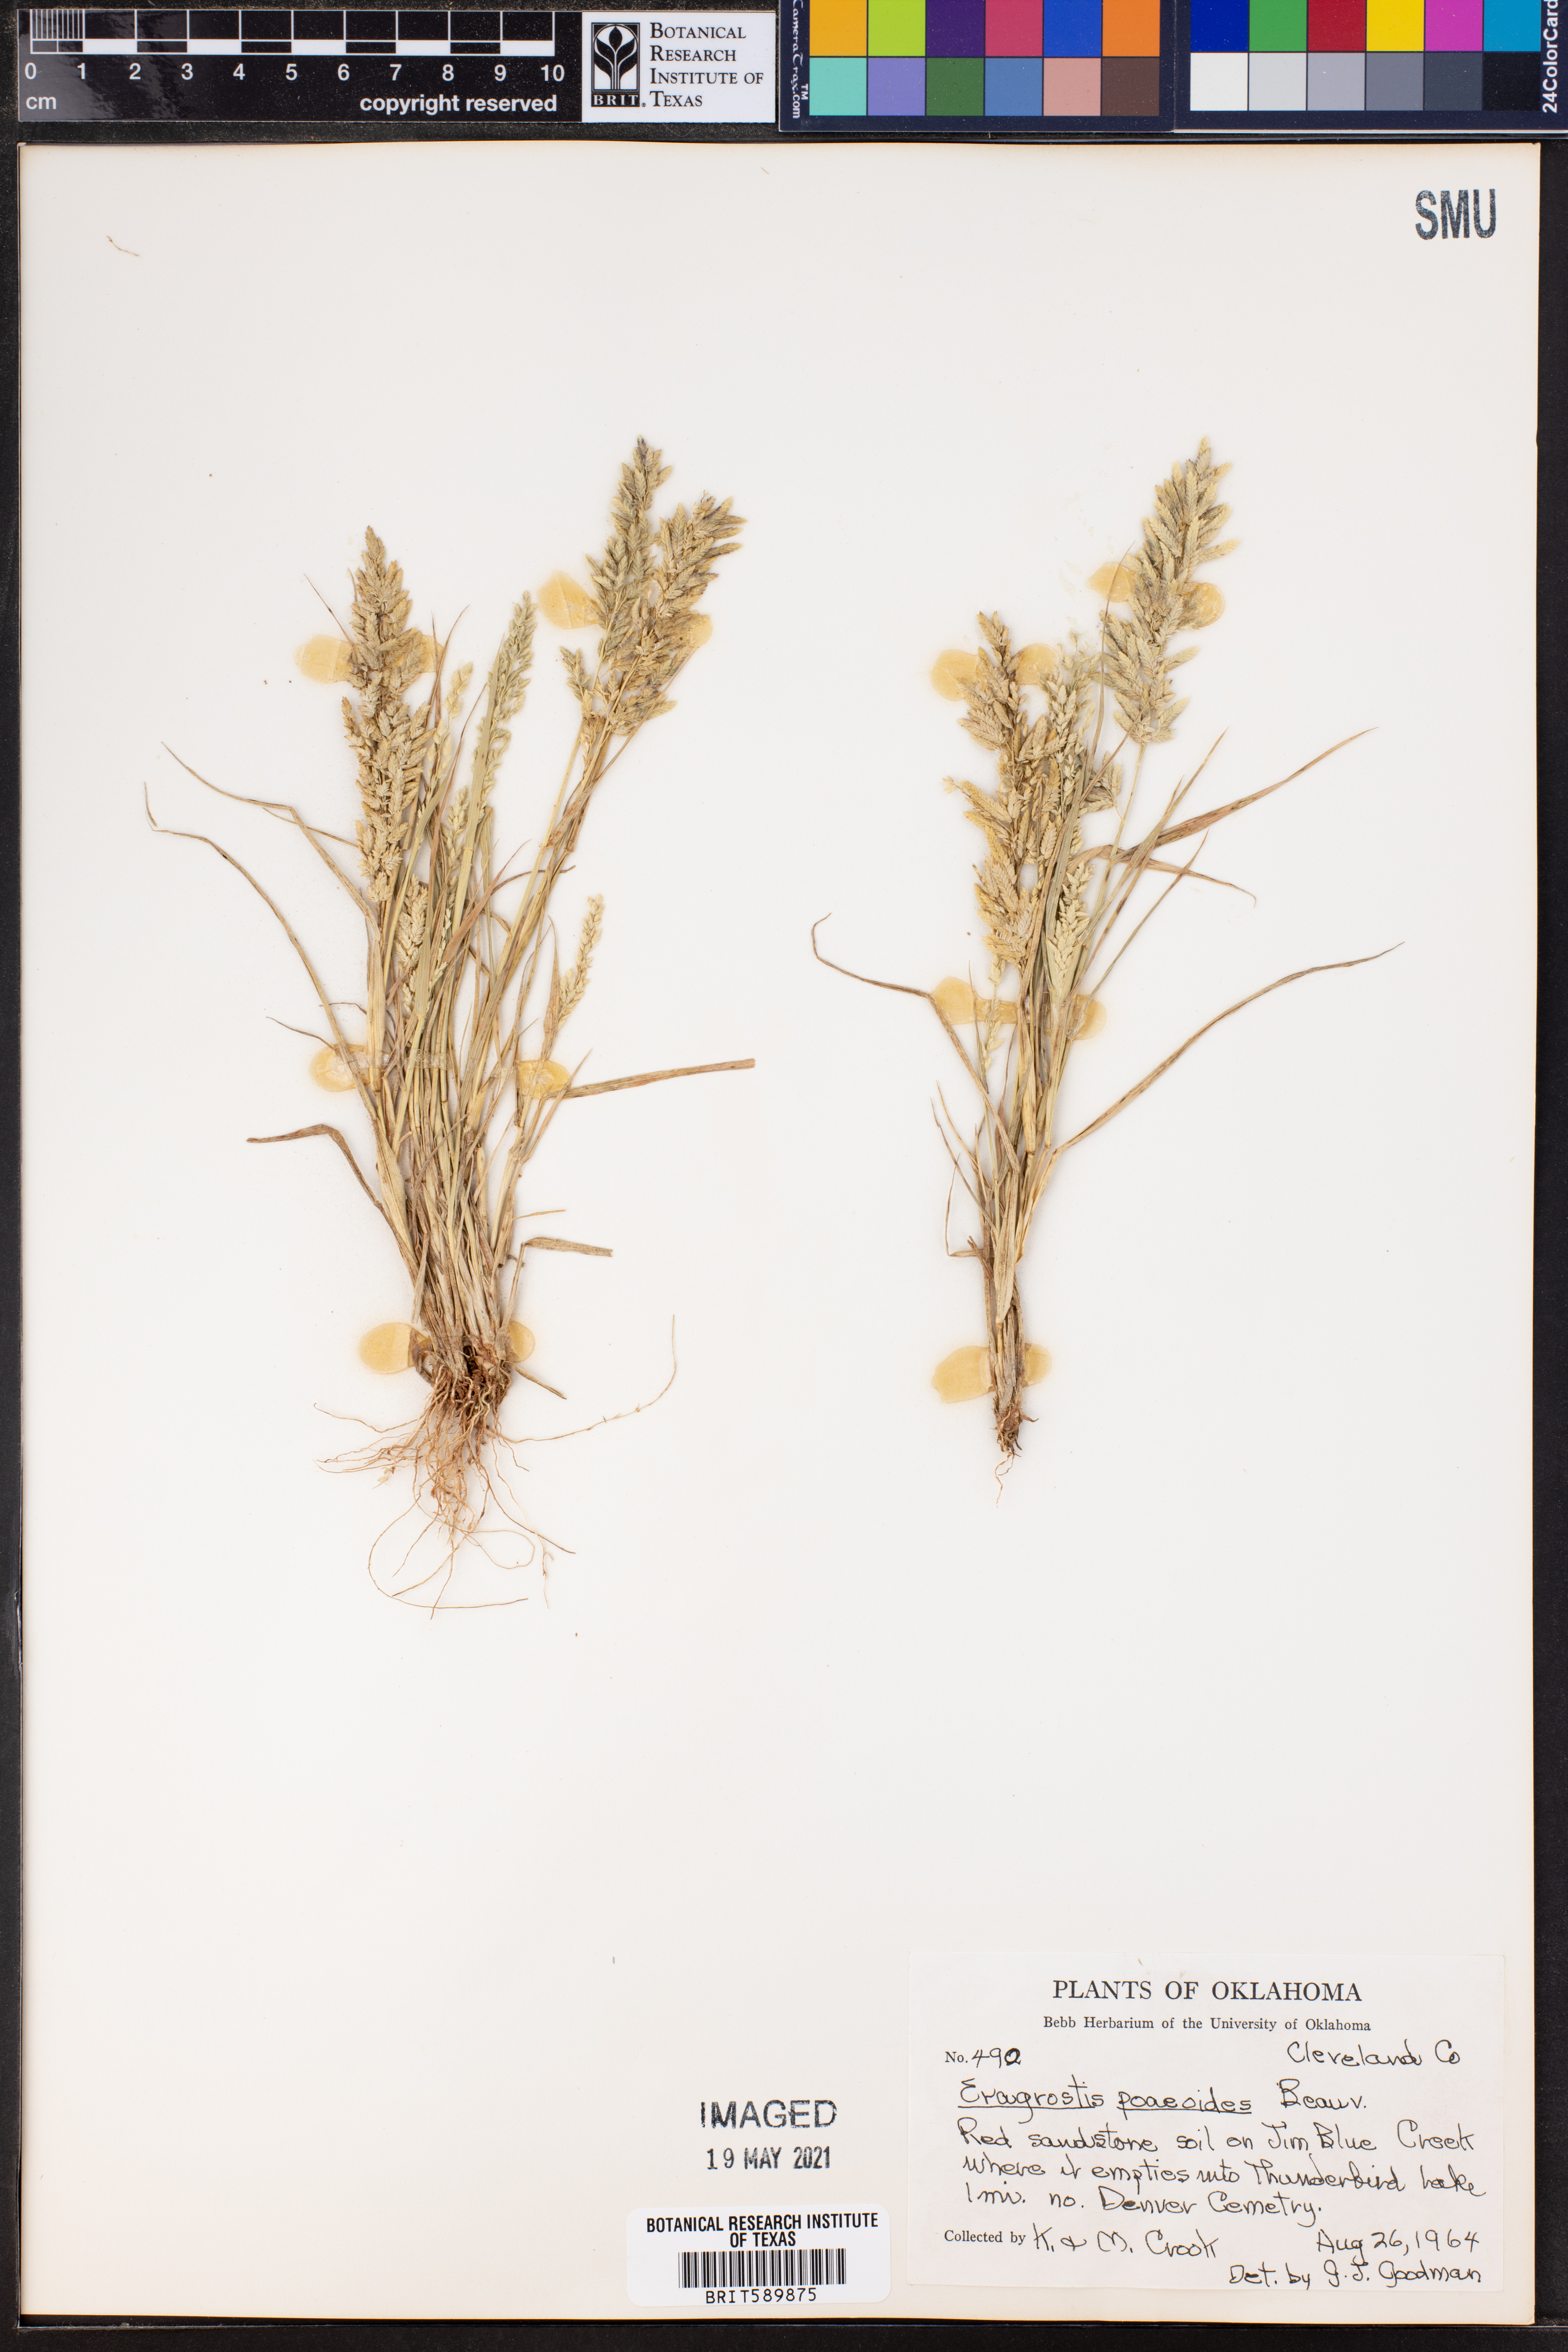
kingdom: Plantae
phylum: Tracheophyta
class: Liliopsida
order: Poales
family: Poaceae
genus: Eragrostis
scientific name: Eragrostis minor
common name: Small love-grass
